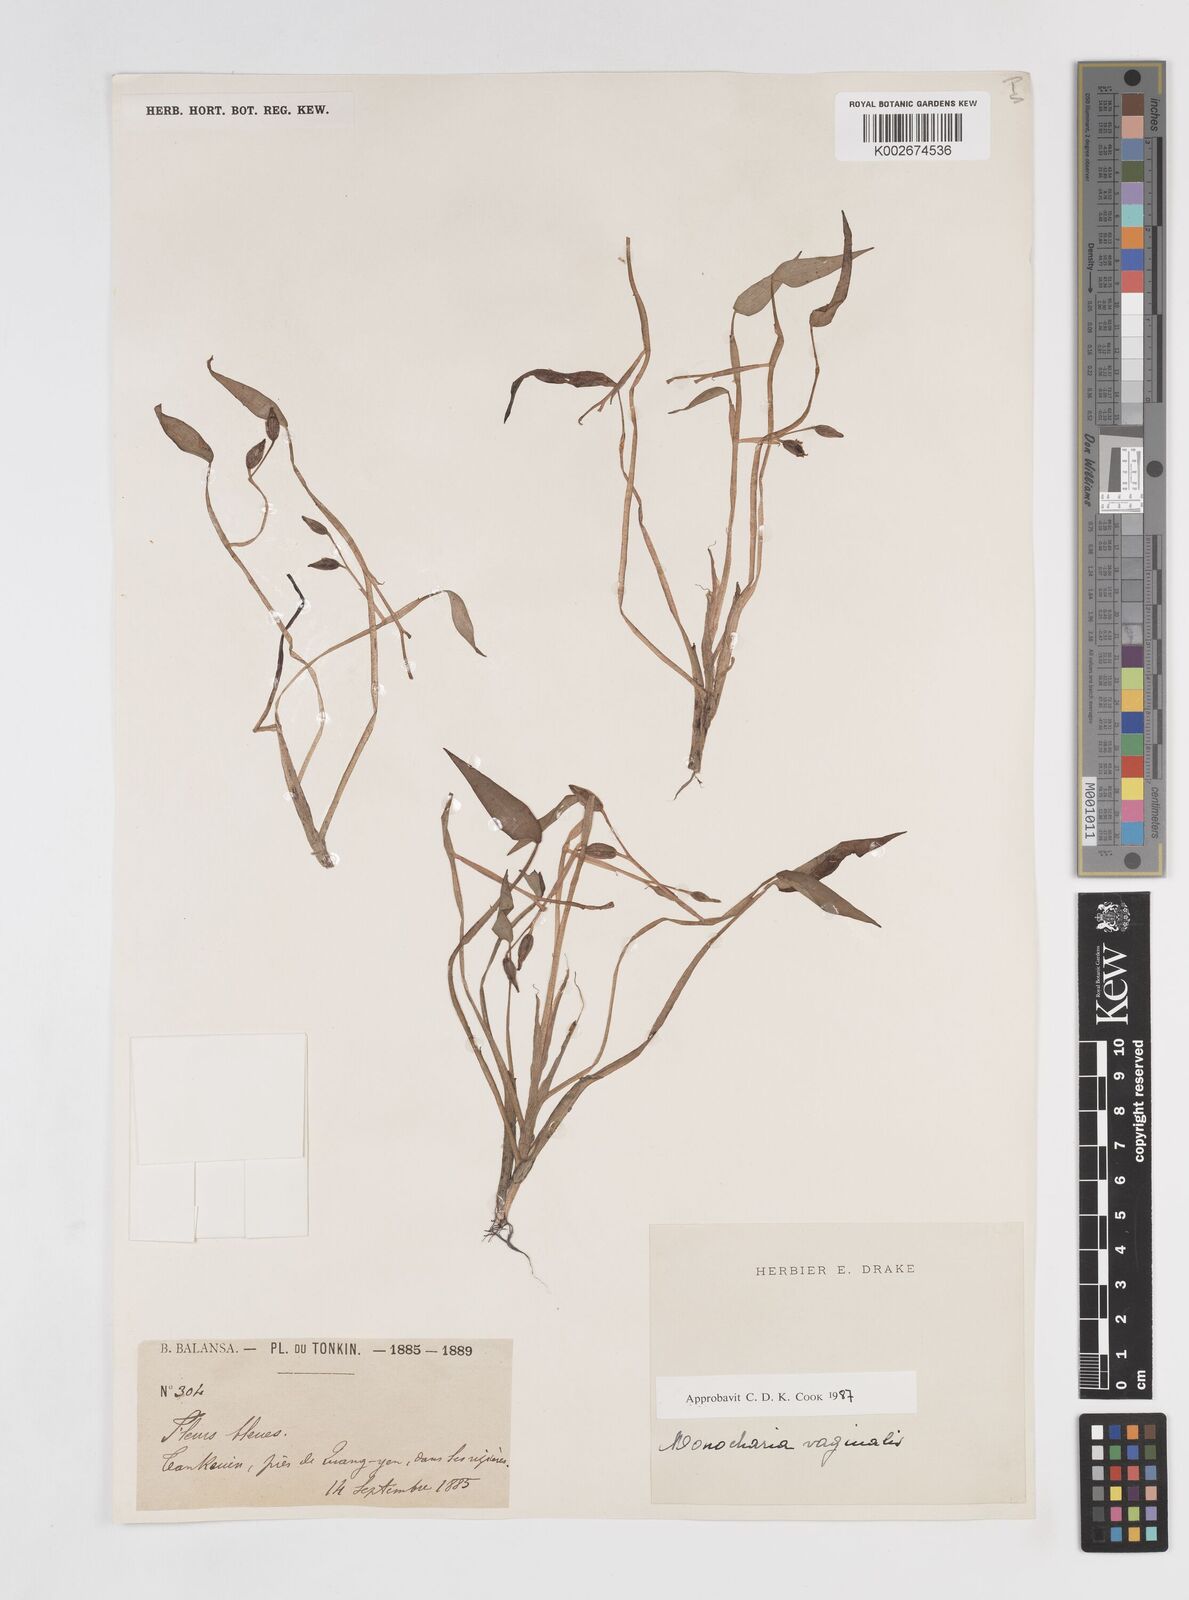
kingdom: Plantae
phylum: Tracheophyta
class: Liliopsida
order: Commelinales
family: Pontederiaceae
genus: Pontederia
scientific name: Pontederia vaginalis
